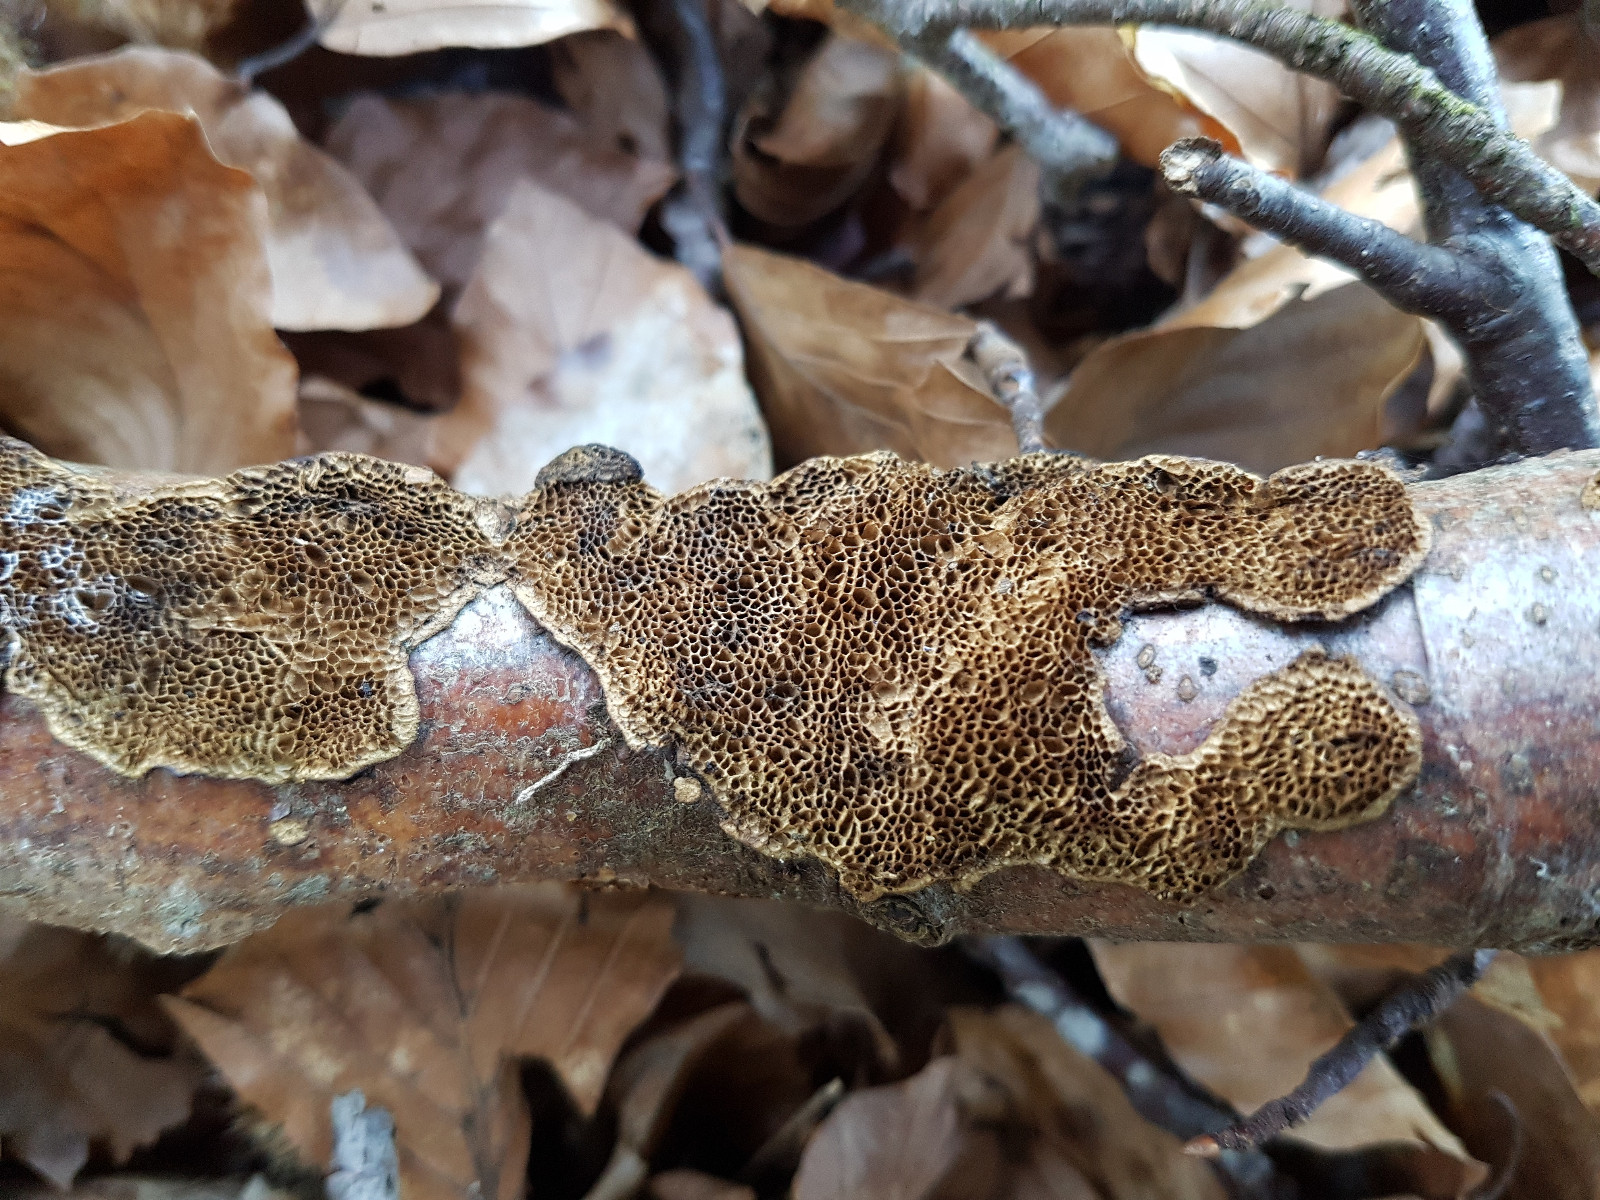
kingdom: Fungi
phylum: Basidiomycota
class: Agaricomycetes
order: Polyporales
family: Polyporaceae
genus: Podofomes
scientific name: Podofomes mollis
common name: blød begporesvamp
